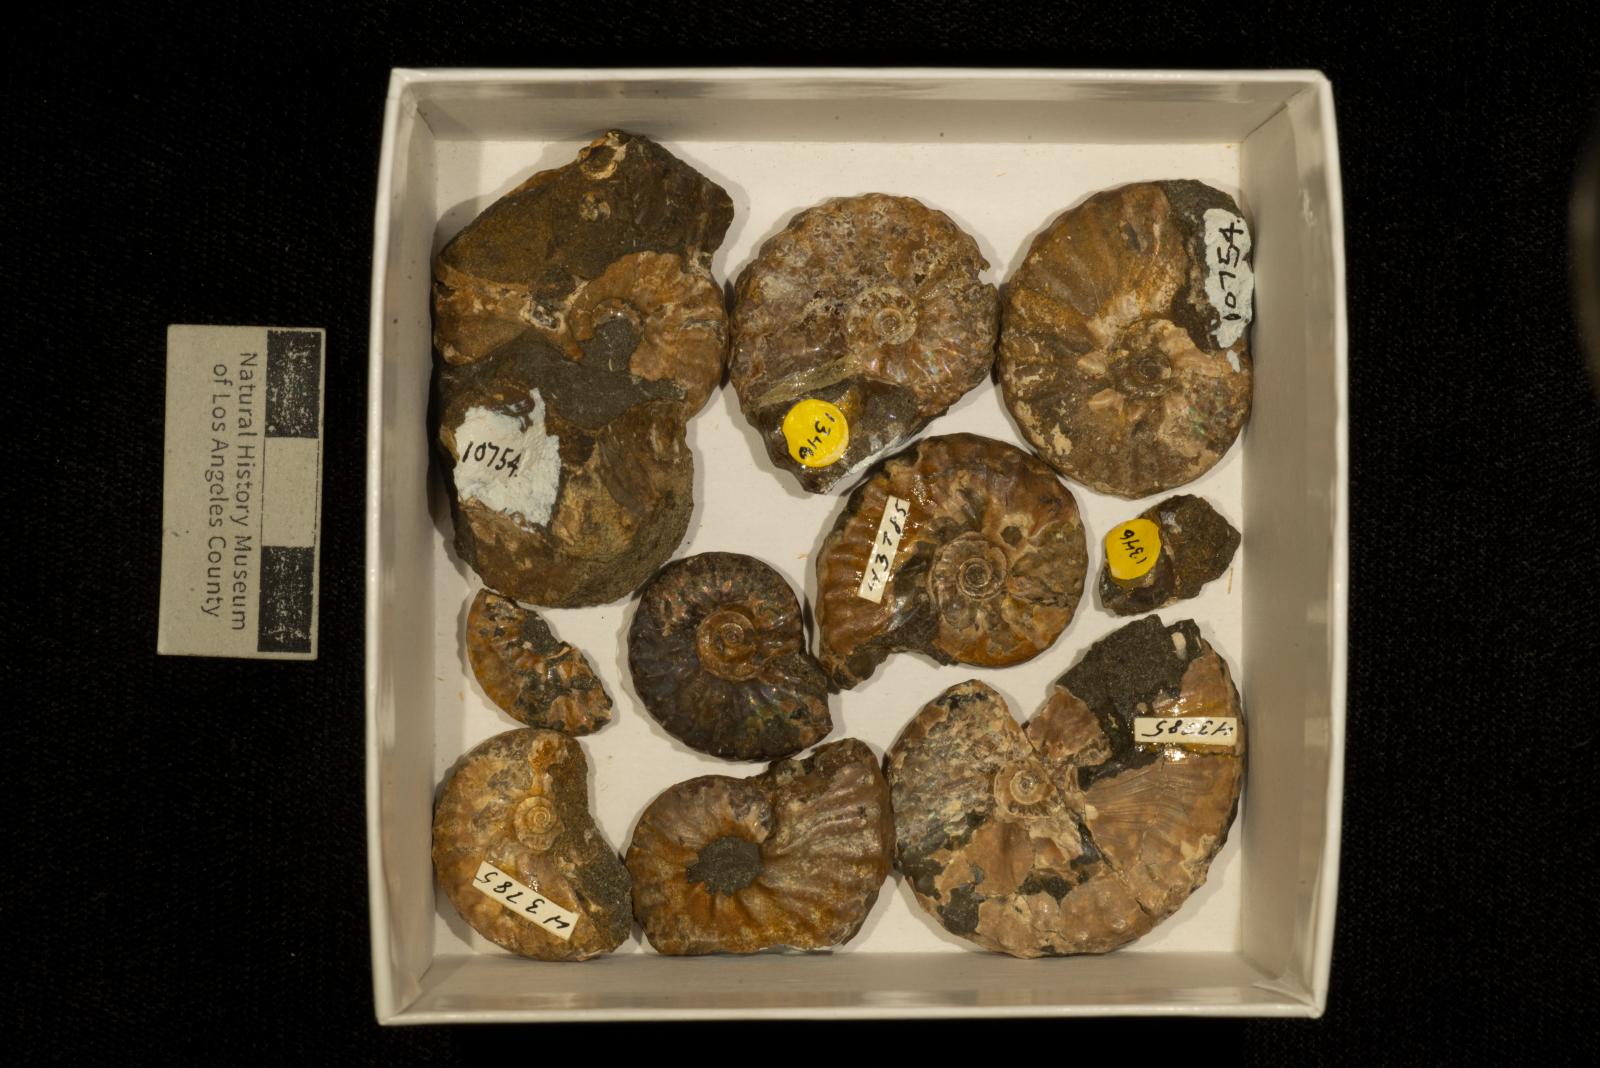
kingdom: Animalia
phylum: Mollusca
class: Cephalopoda
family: Collignoniceratidae
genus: Subprionocyclus
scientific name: Subprionocyclus
